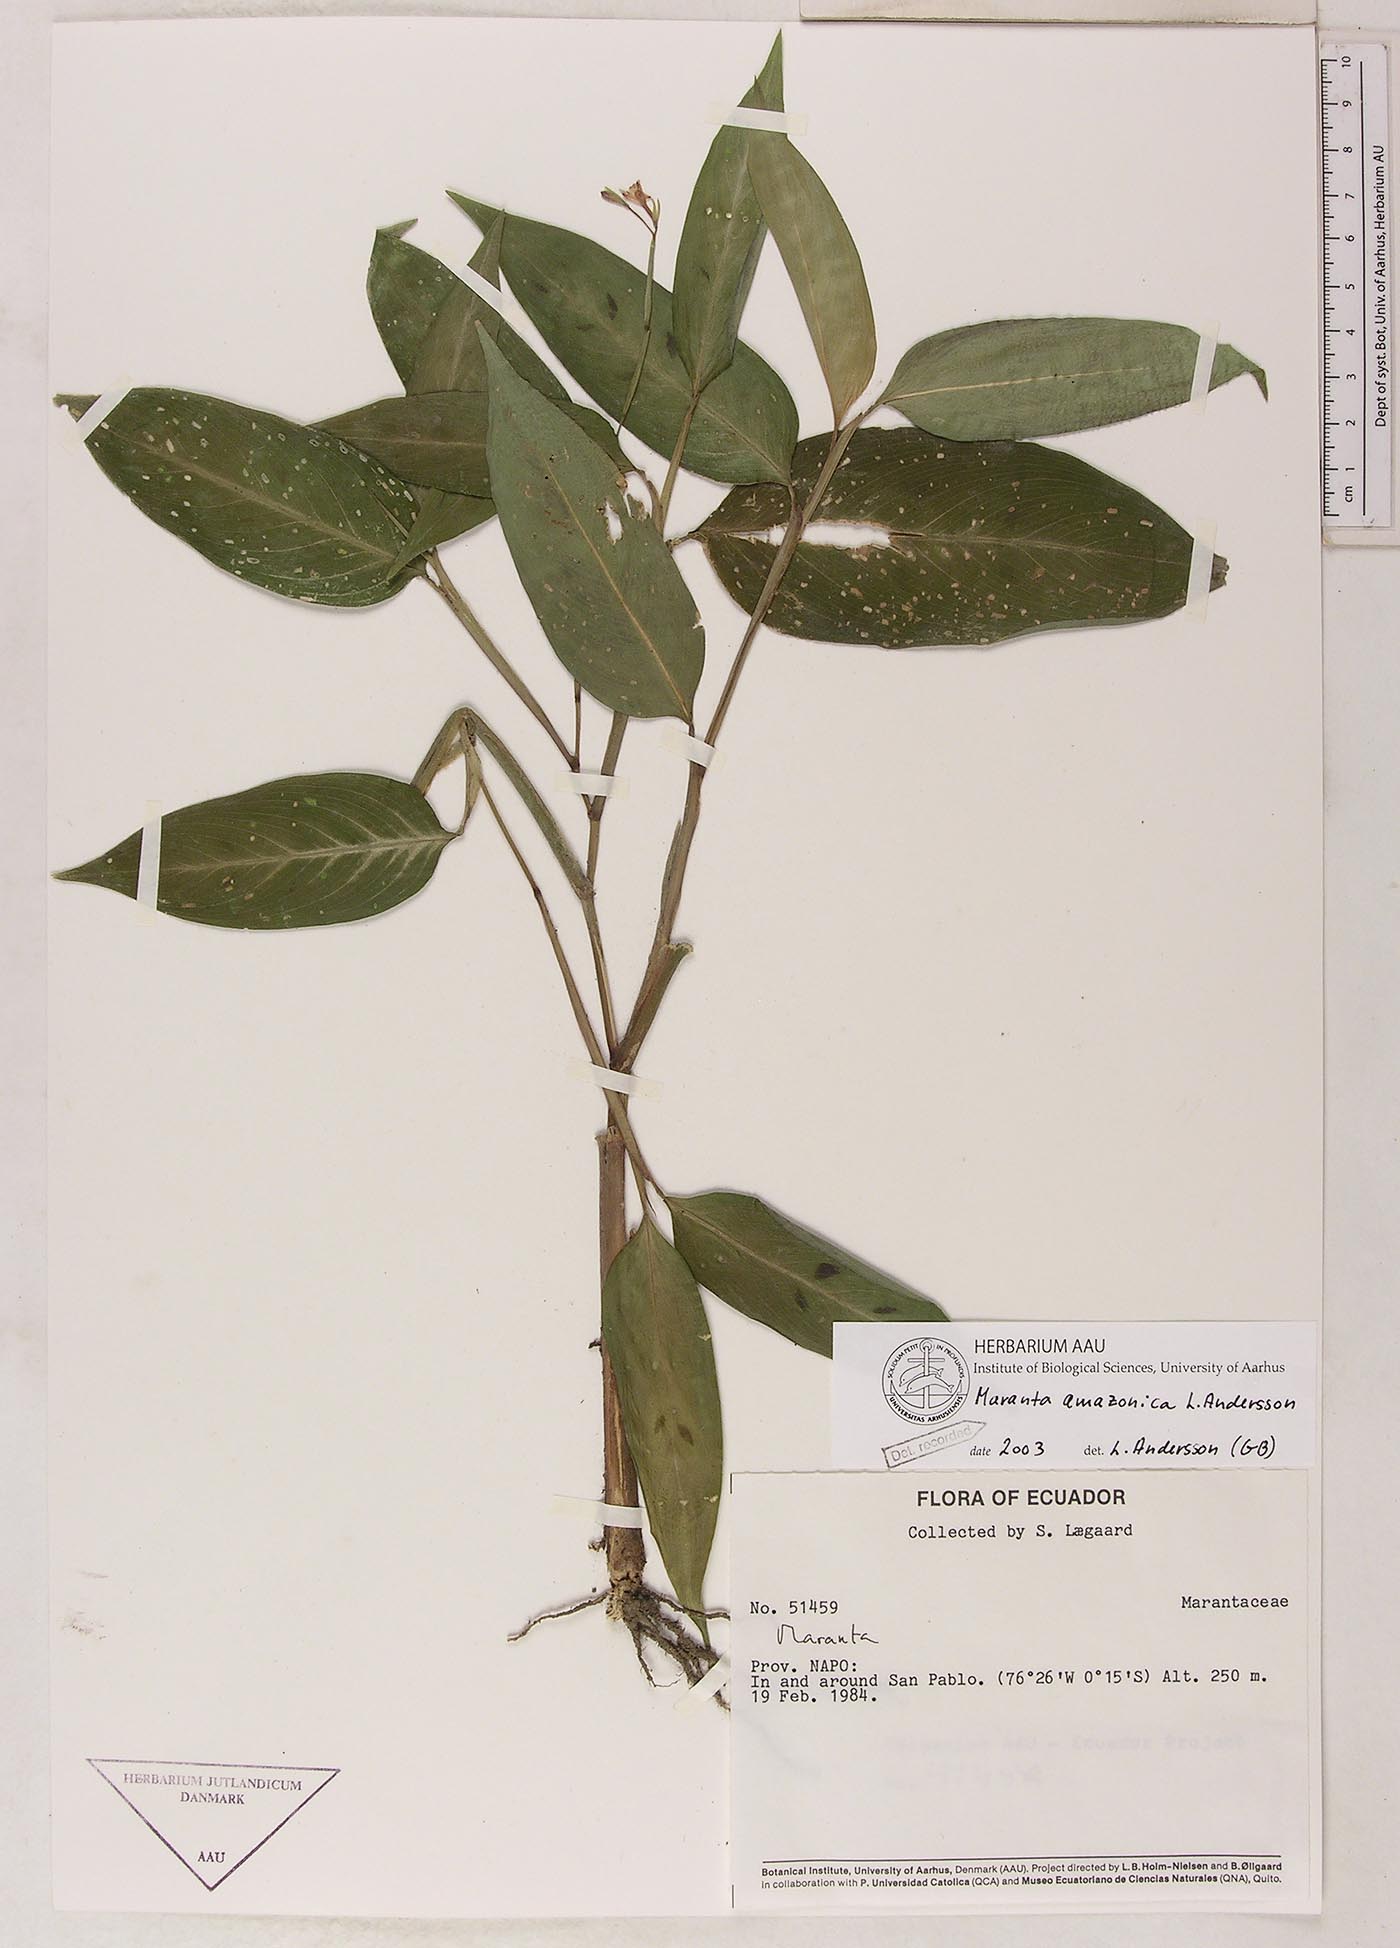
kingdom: Plantae
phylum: Tracheophyta
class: Liliopsida
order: Zingiberales
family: Marantaceae
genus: Maranta
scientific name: Maranta amazonica
